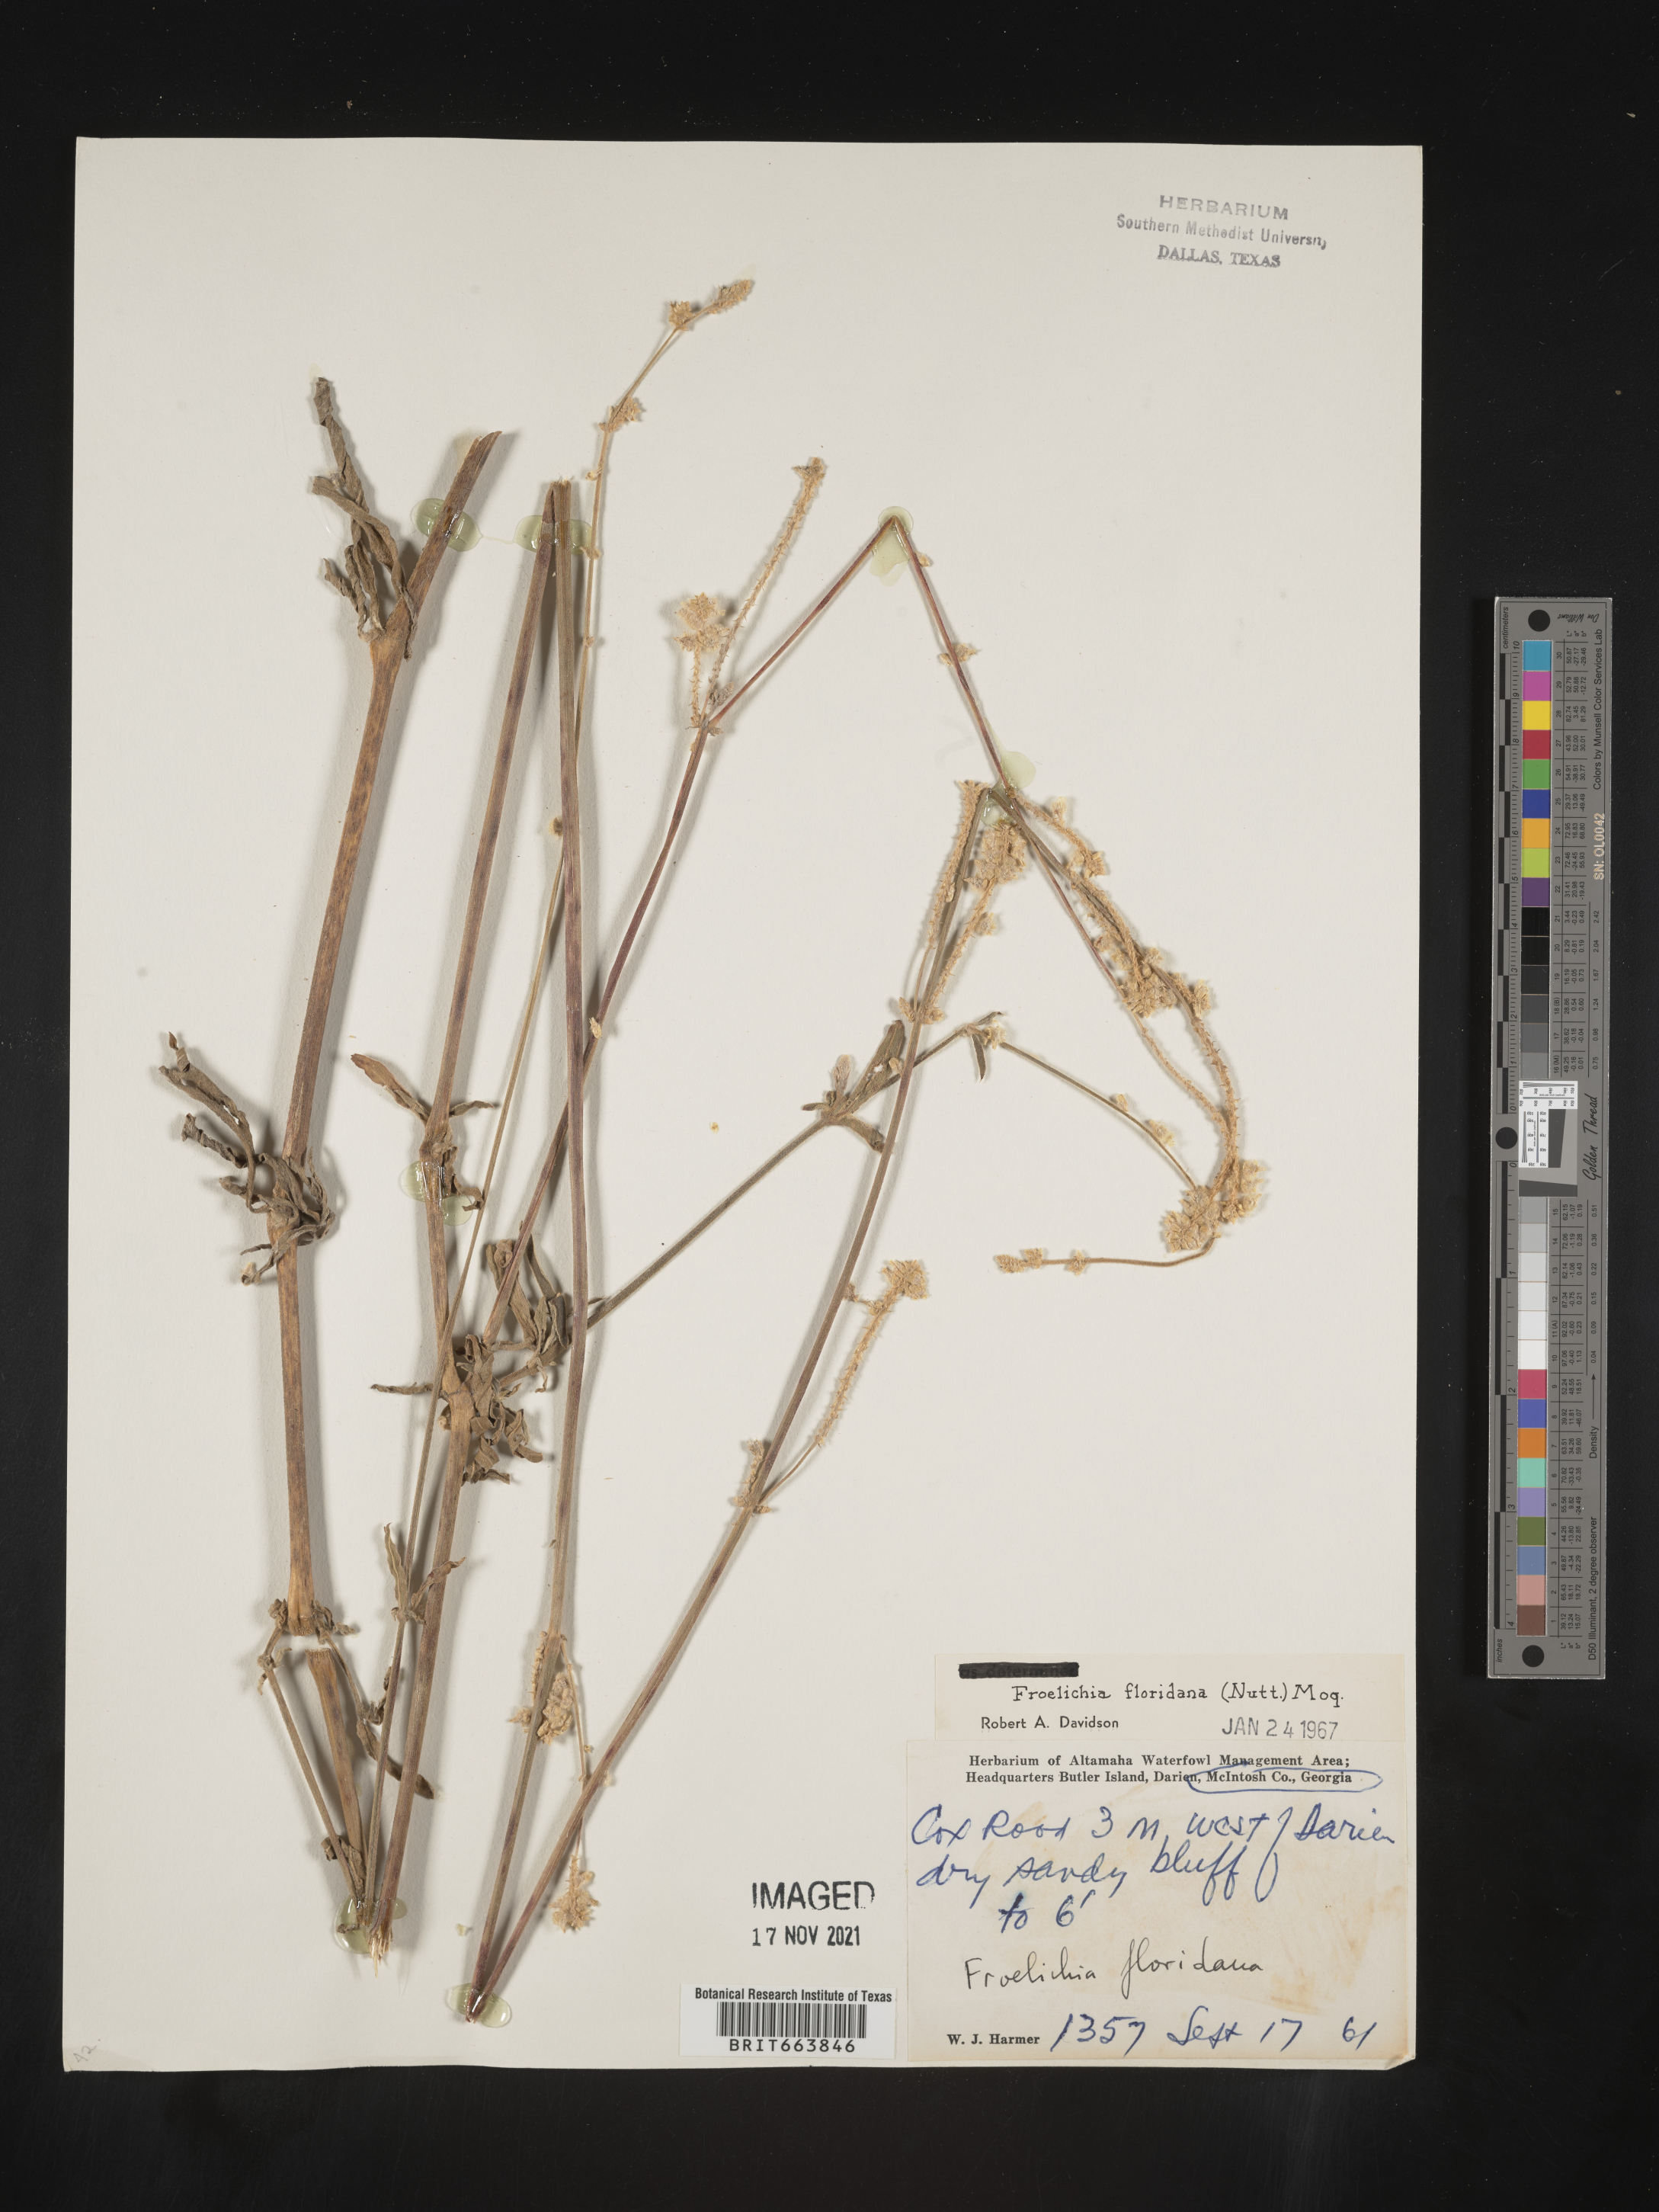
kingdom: Plantae
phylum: Tracheophyta
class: Magnoliopsida
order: Caryophyllales
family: Amaranthaceae
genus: Froelichia
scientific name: Froelichia floridana
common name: Florida snake-cotton
